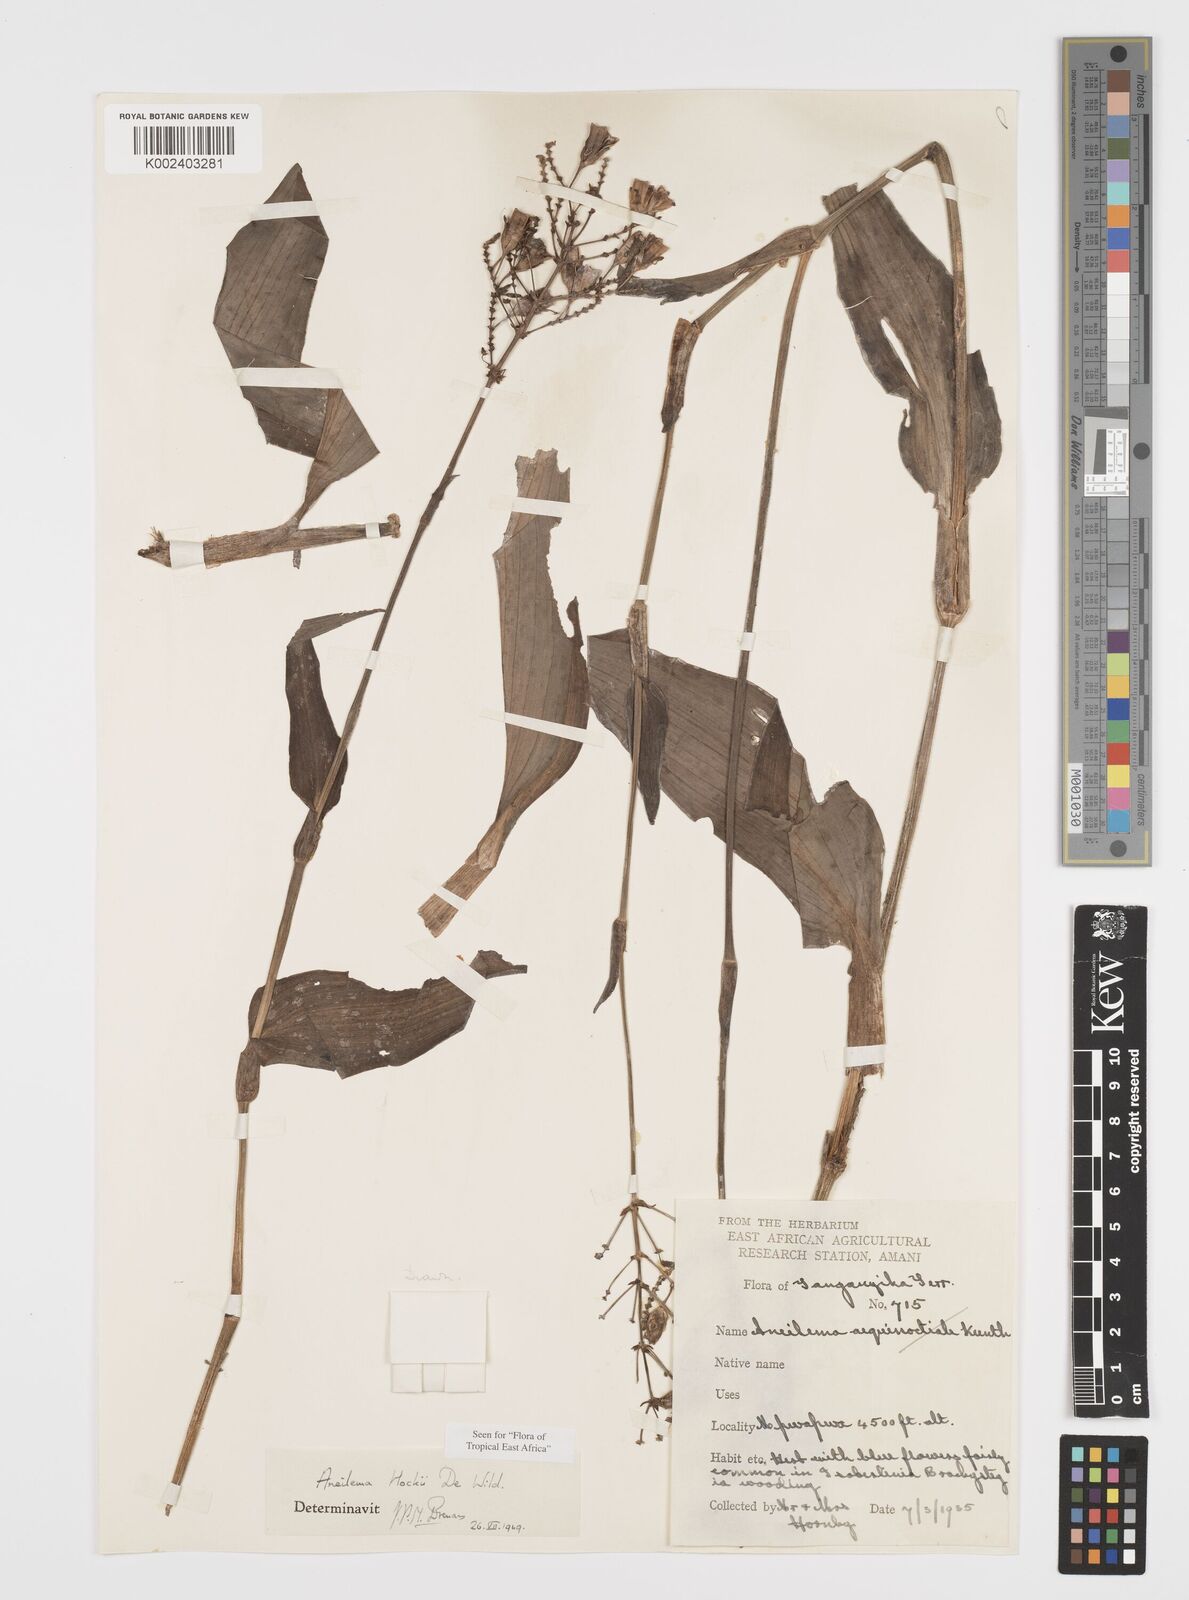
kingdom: Plantae
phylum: Tracheophyta
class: Liliopsida
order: Commelinales
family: Commelinaceae
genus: Aneilema
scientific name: Aneilema hockii
